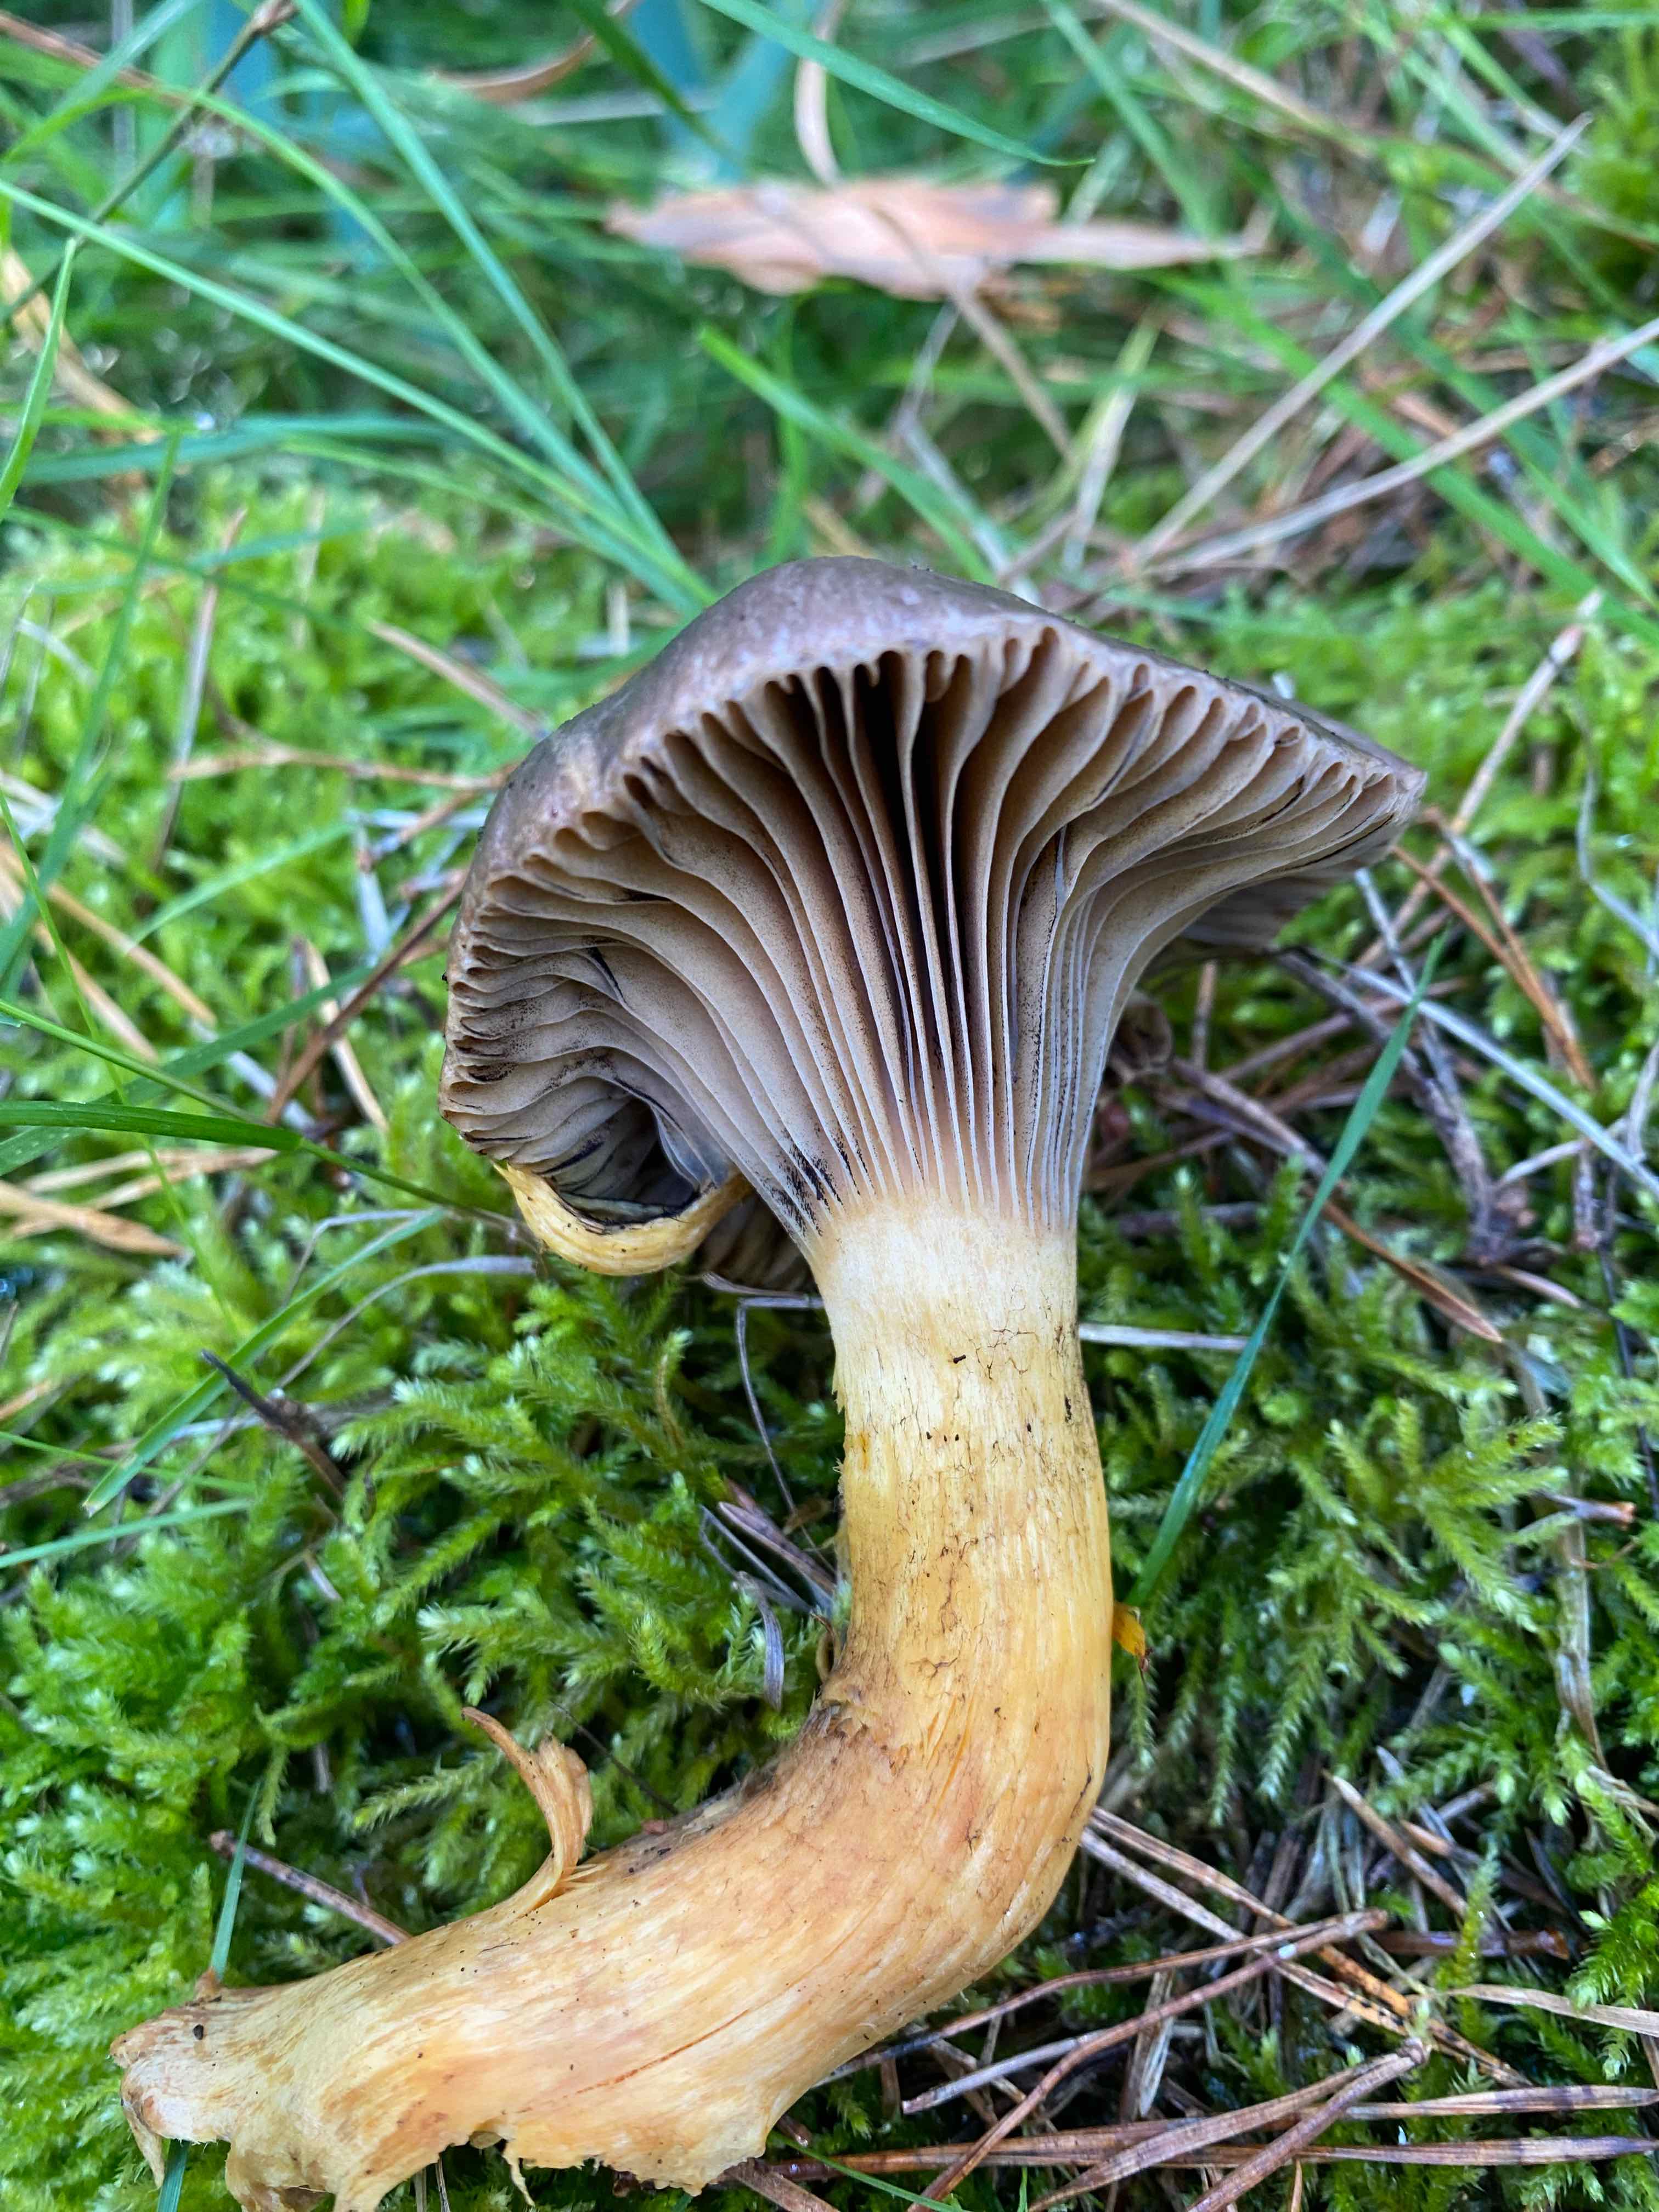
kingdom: Fungi
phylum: Basidiomycota
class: Agaricomycetes
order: Boletales
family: Gomphidiaceae
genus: Chroogomphus
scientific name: Chroogomphus rutilus
